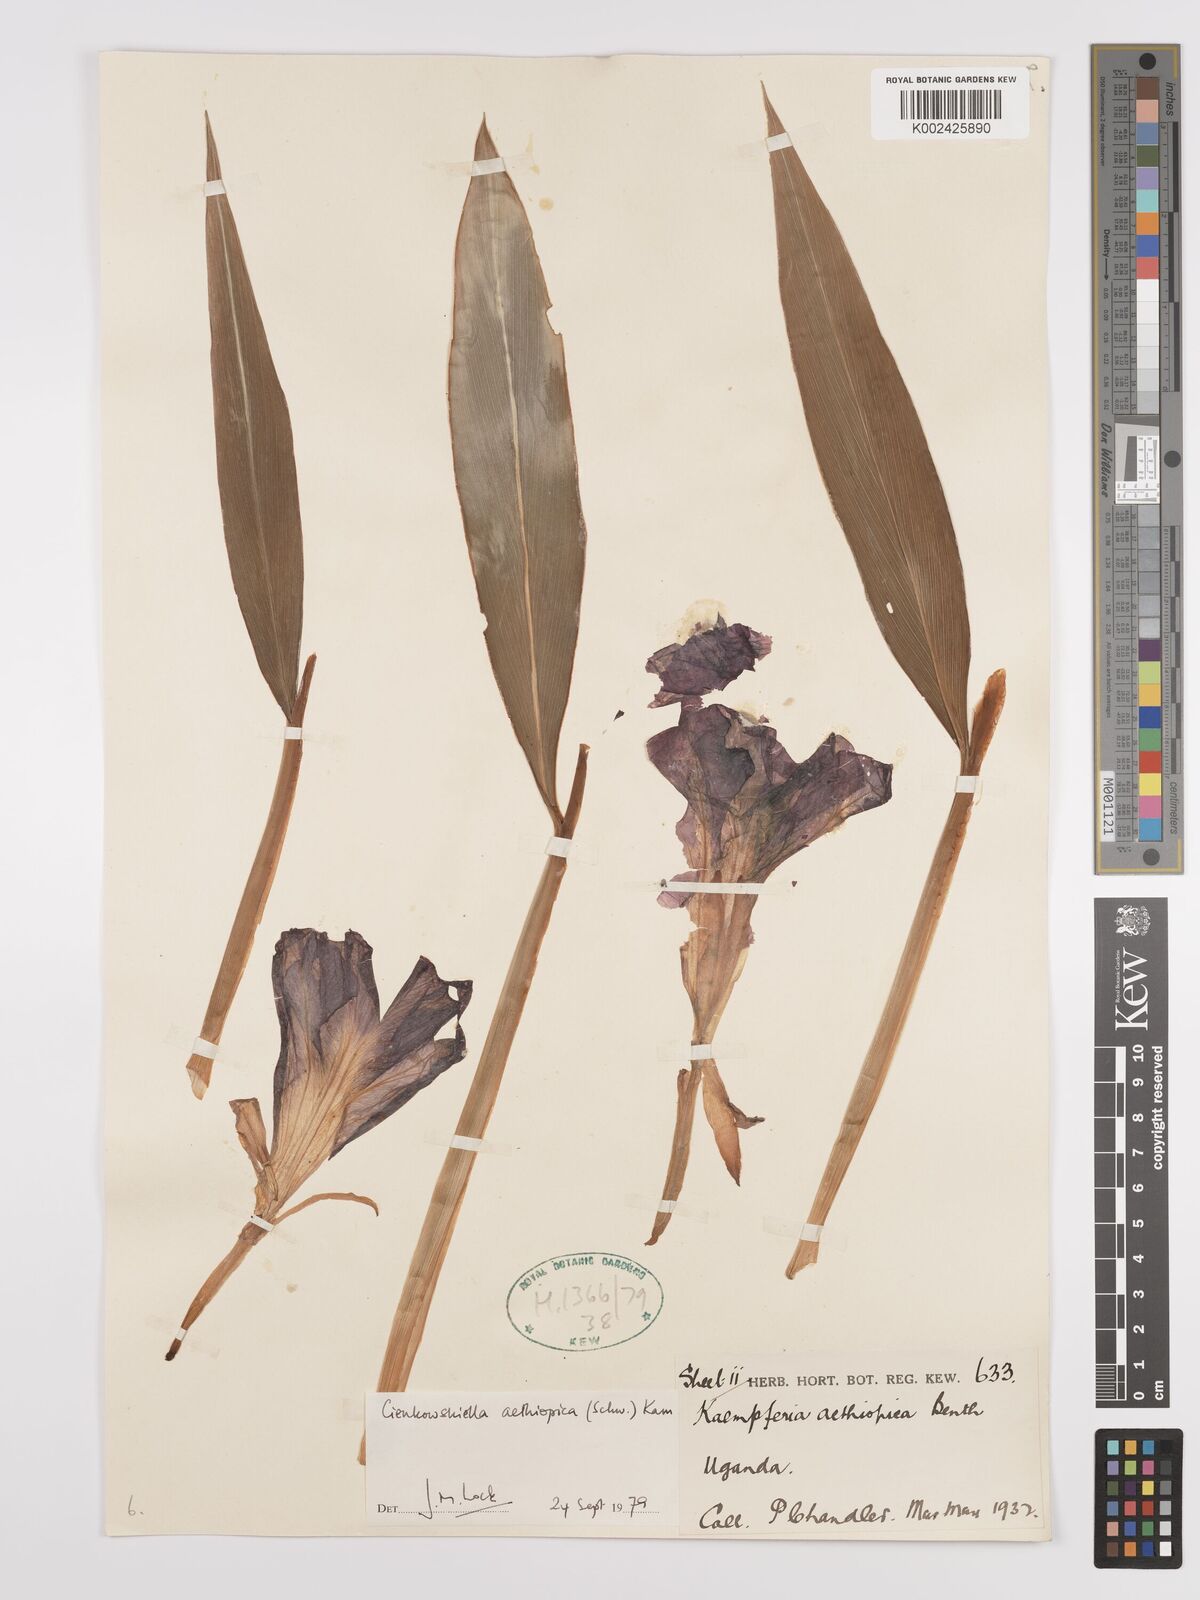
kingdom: Plantae
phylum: Tracheophyta
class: Liliopsida
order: Zingiberales
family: Zingiberaceae
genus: Siphonochilus
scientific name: Siphonochilus aethiopicus
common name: African-ginger
